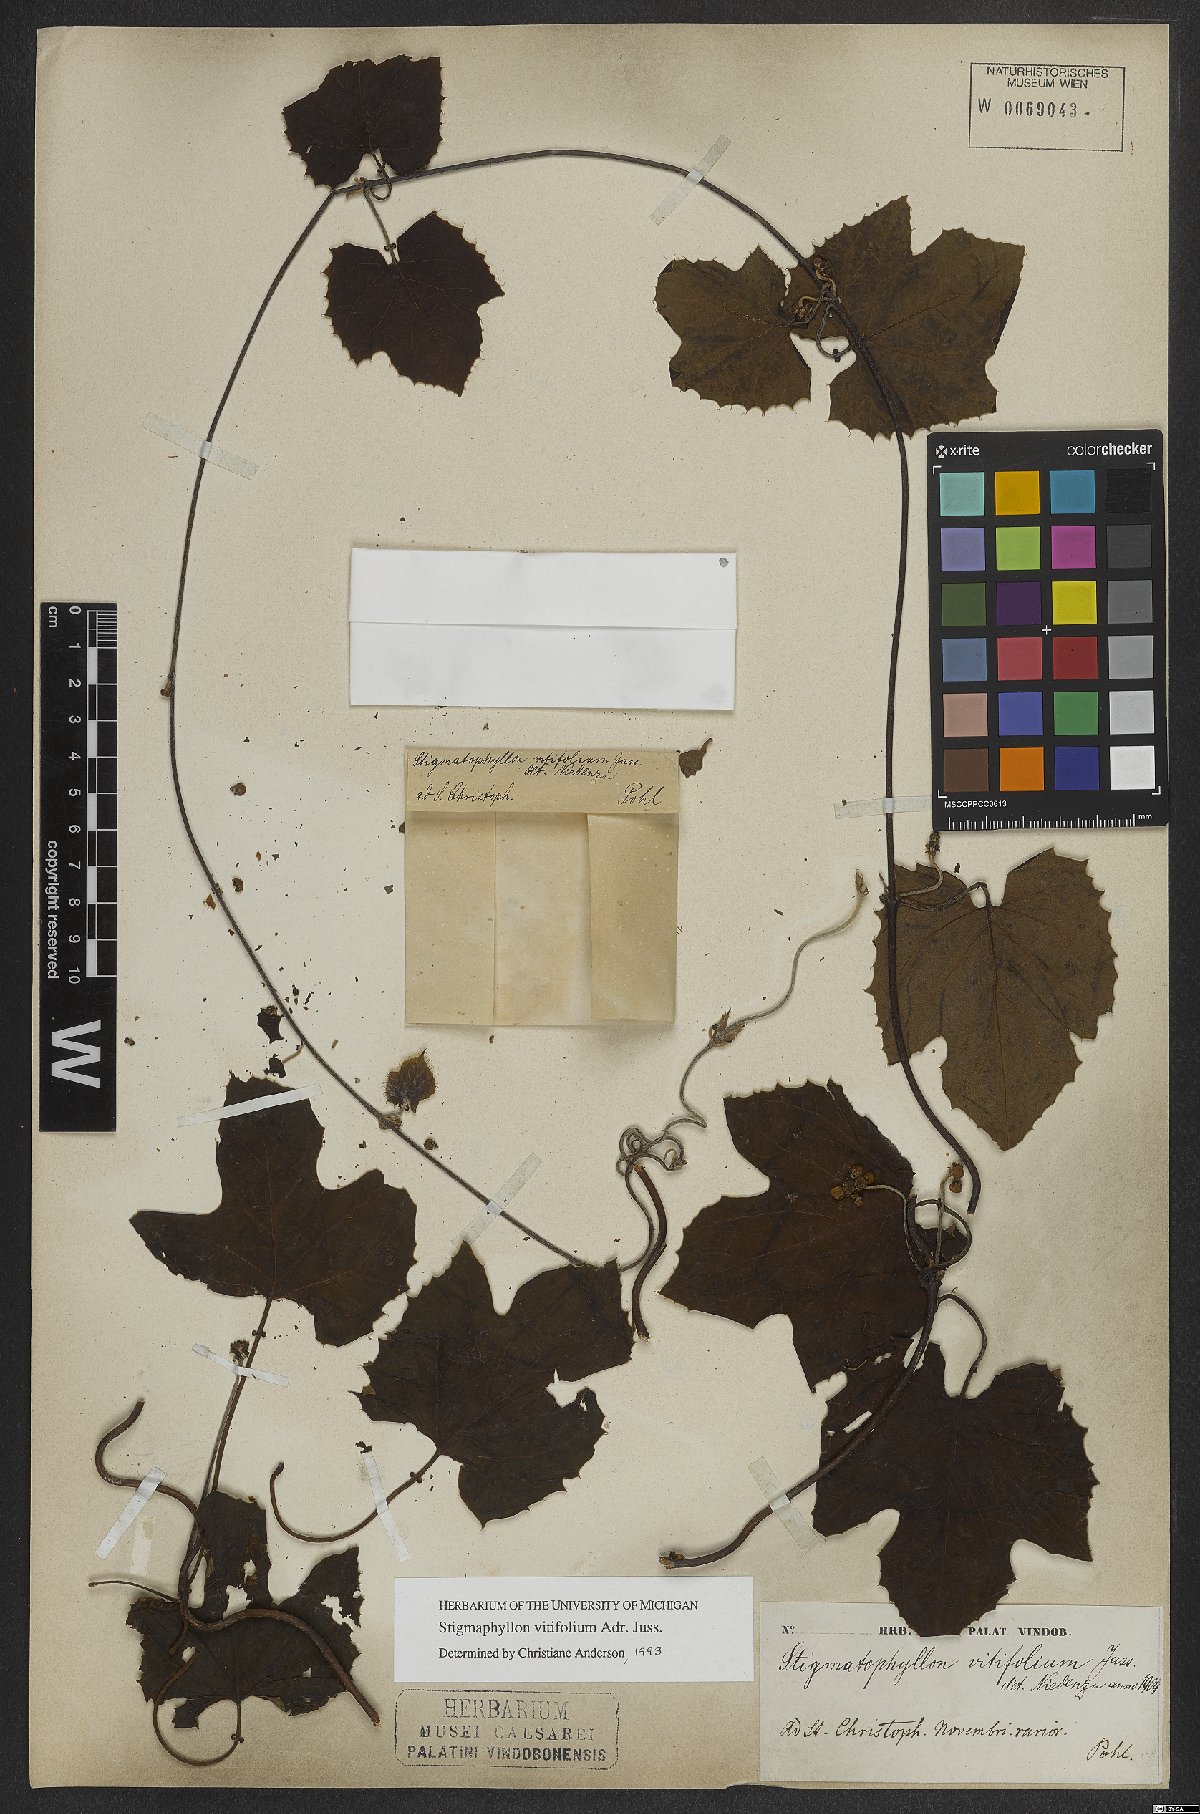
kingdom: Plantae
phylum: Tracheophyta
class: Magnoliopsida
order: Malpighiales
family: Malpighiaceae
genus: Stigmaphyllon
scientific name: Stigmaphyllon vitifolium
